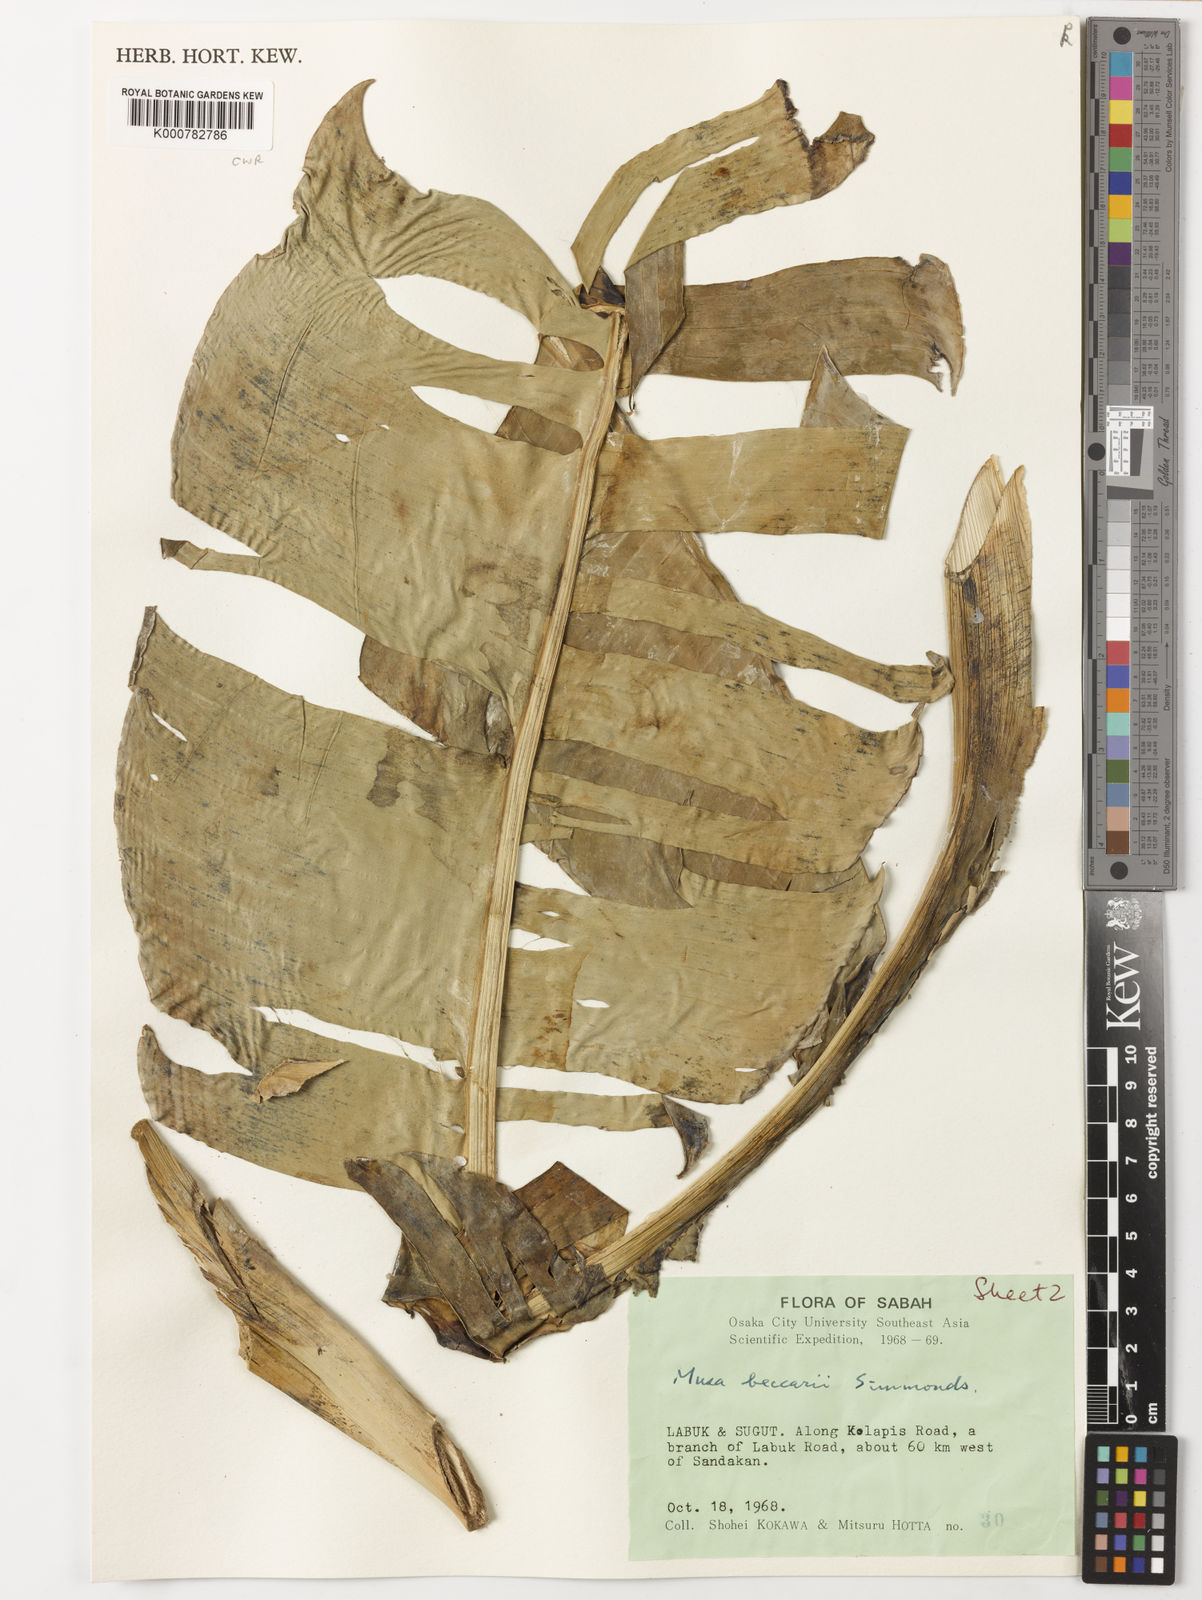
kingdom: Plantae
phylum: Tracheophyta
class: Liliopsida
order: Zingiberales
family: Musaceae
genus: Musa
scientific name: Musa beccarii
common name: Pisang tajak
